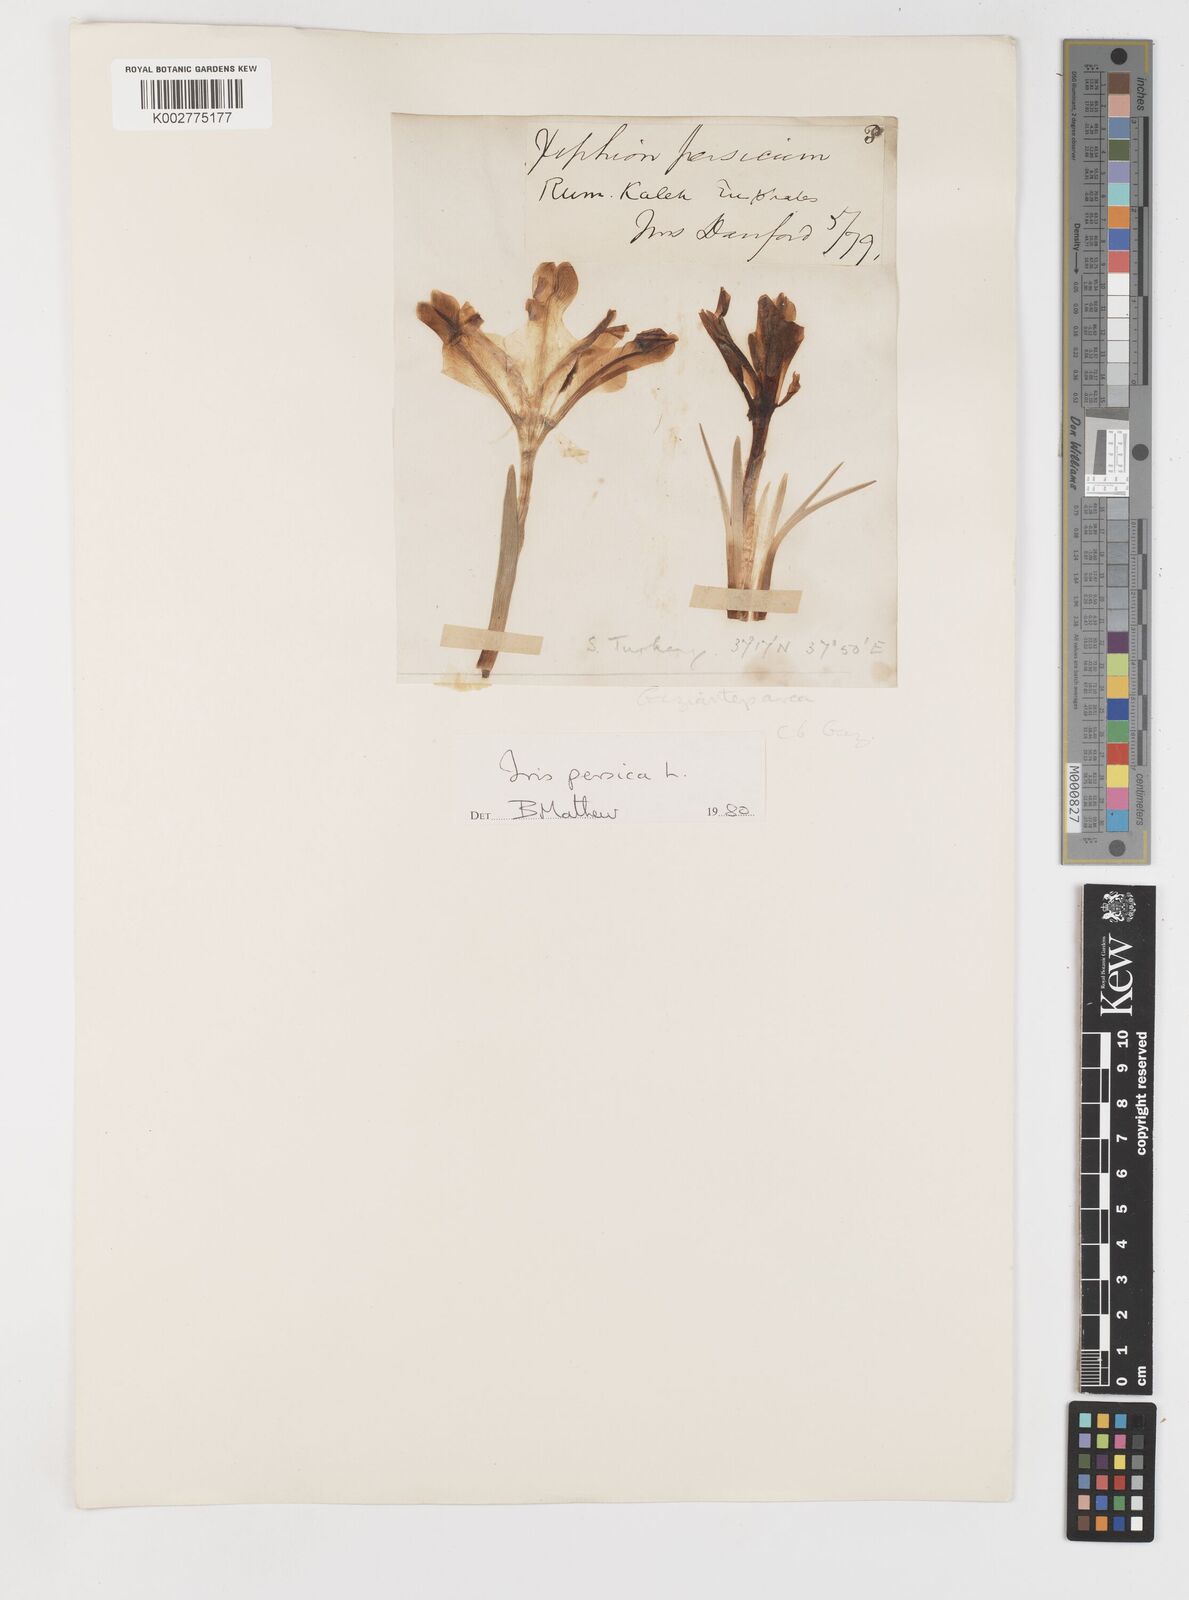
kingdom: Plantae
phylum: Tracheophyta
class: Liliopsida
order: Asparagales
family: Iridaceae
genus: Iris
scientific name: Iris persica
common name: Persian iris
